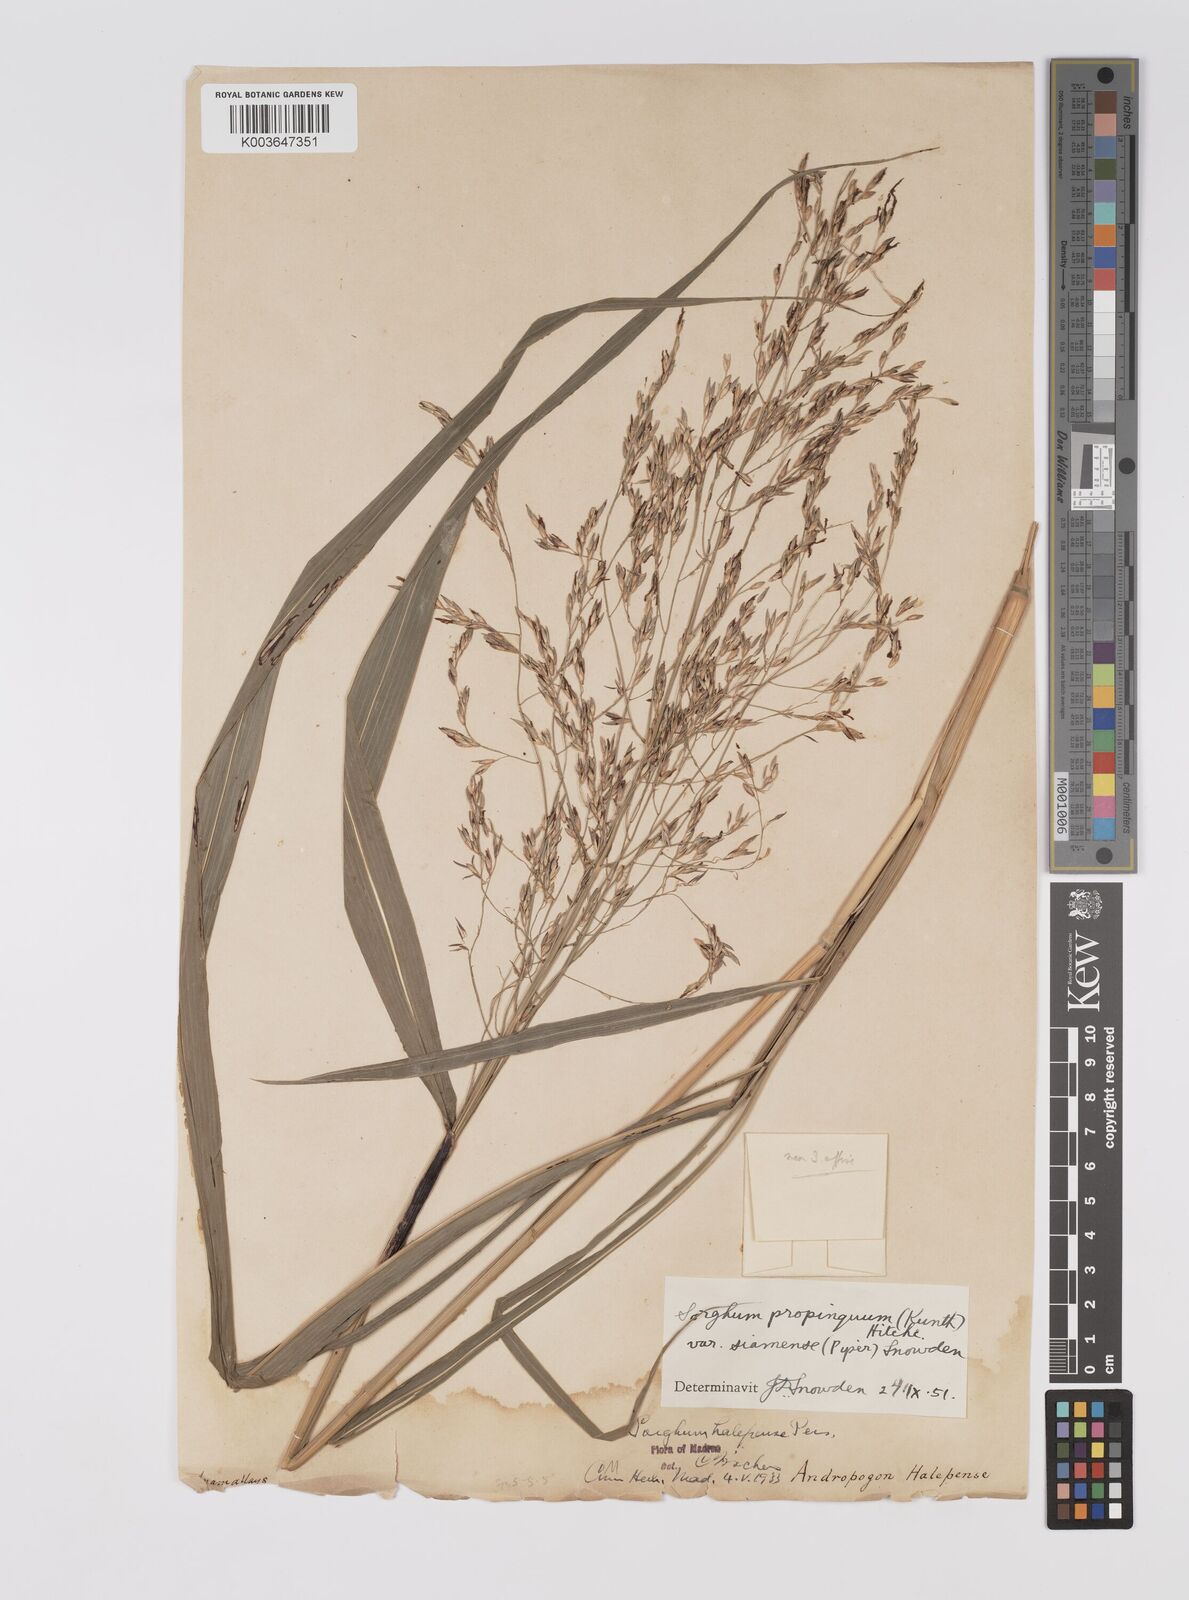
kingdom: Plantae
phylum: Tracheophyta
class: Liliopsida
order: Poales
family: Poaceae
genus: Sorghum
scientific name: Sorghum propinquum
